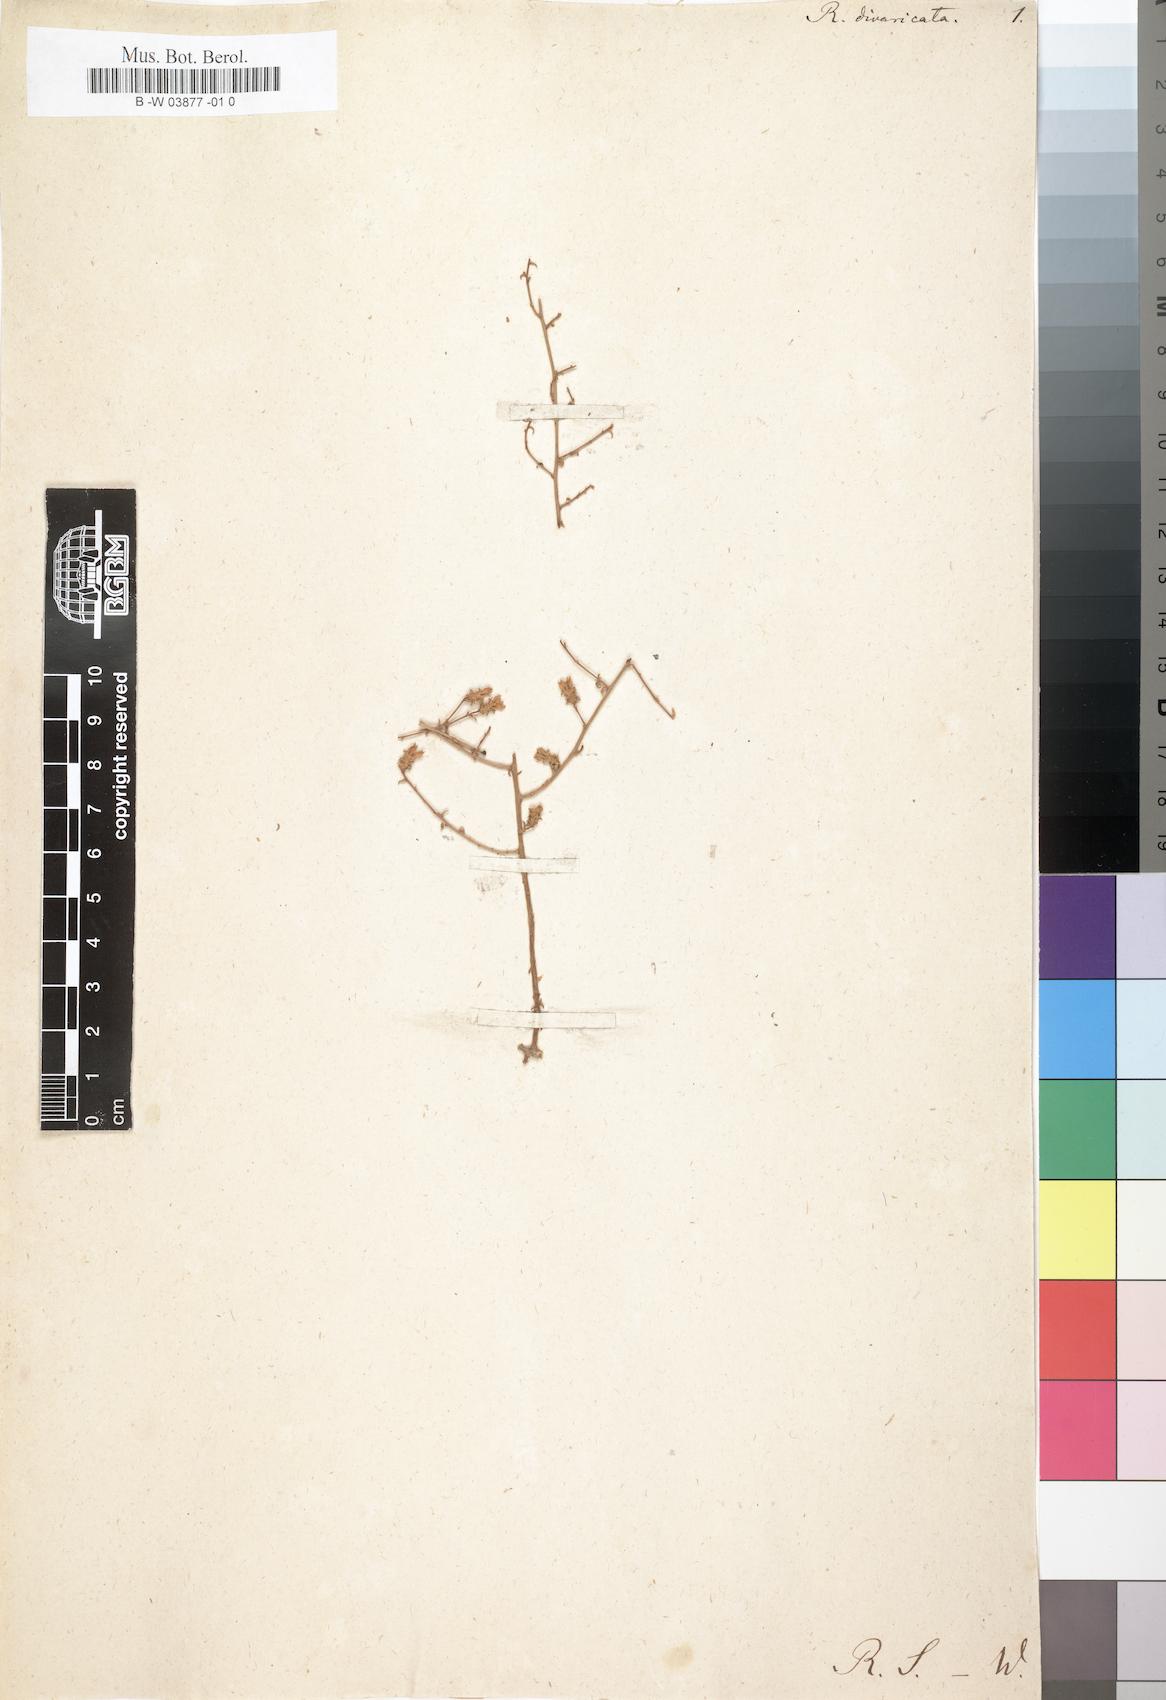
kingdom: Plantae
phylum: Tracheophyta
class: Magnoliopsida
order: Asterales
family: Campanulaceae
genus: Roella
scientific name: Roella
